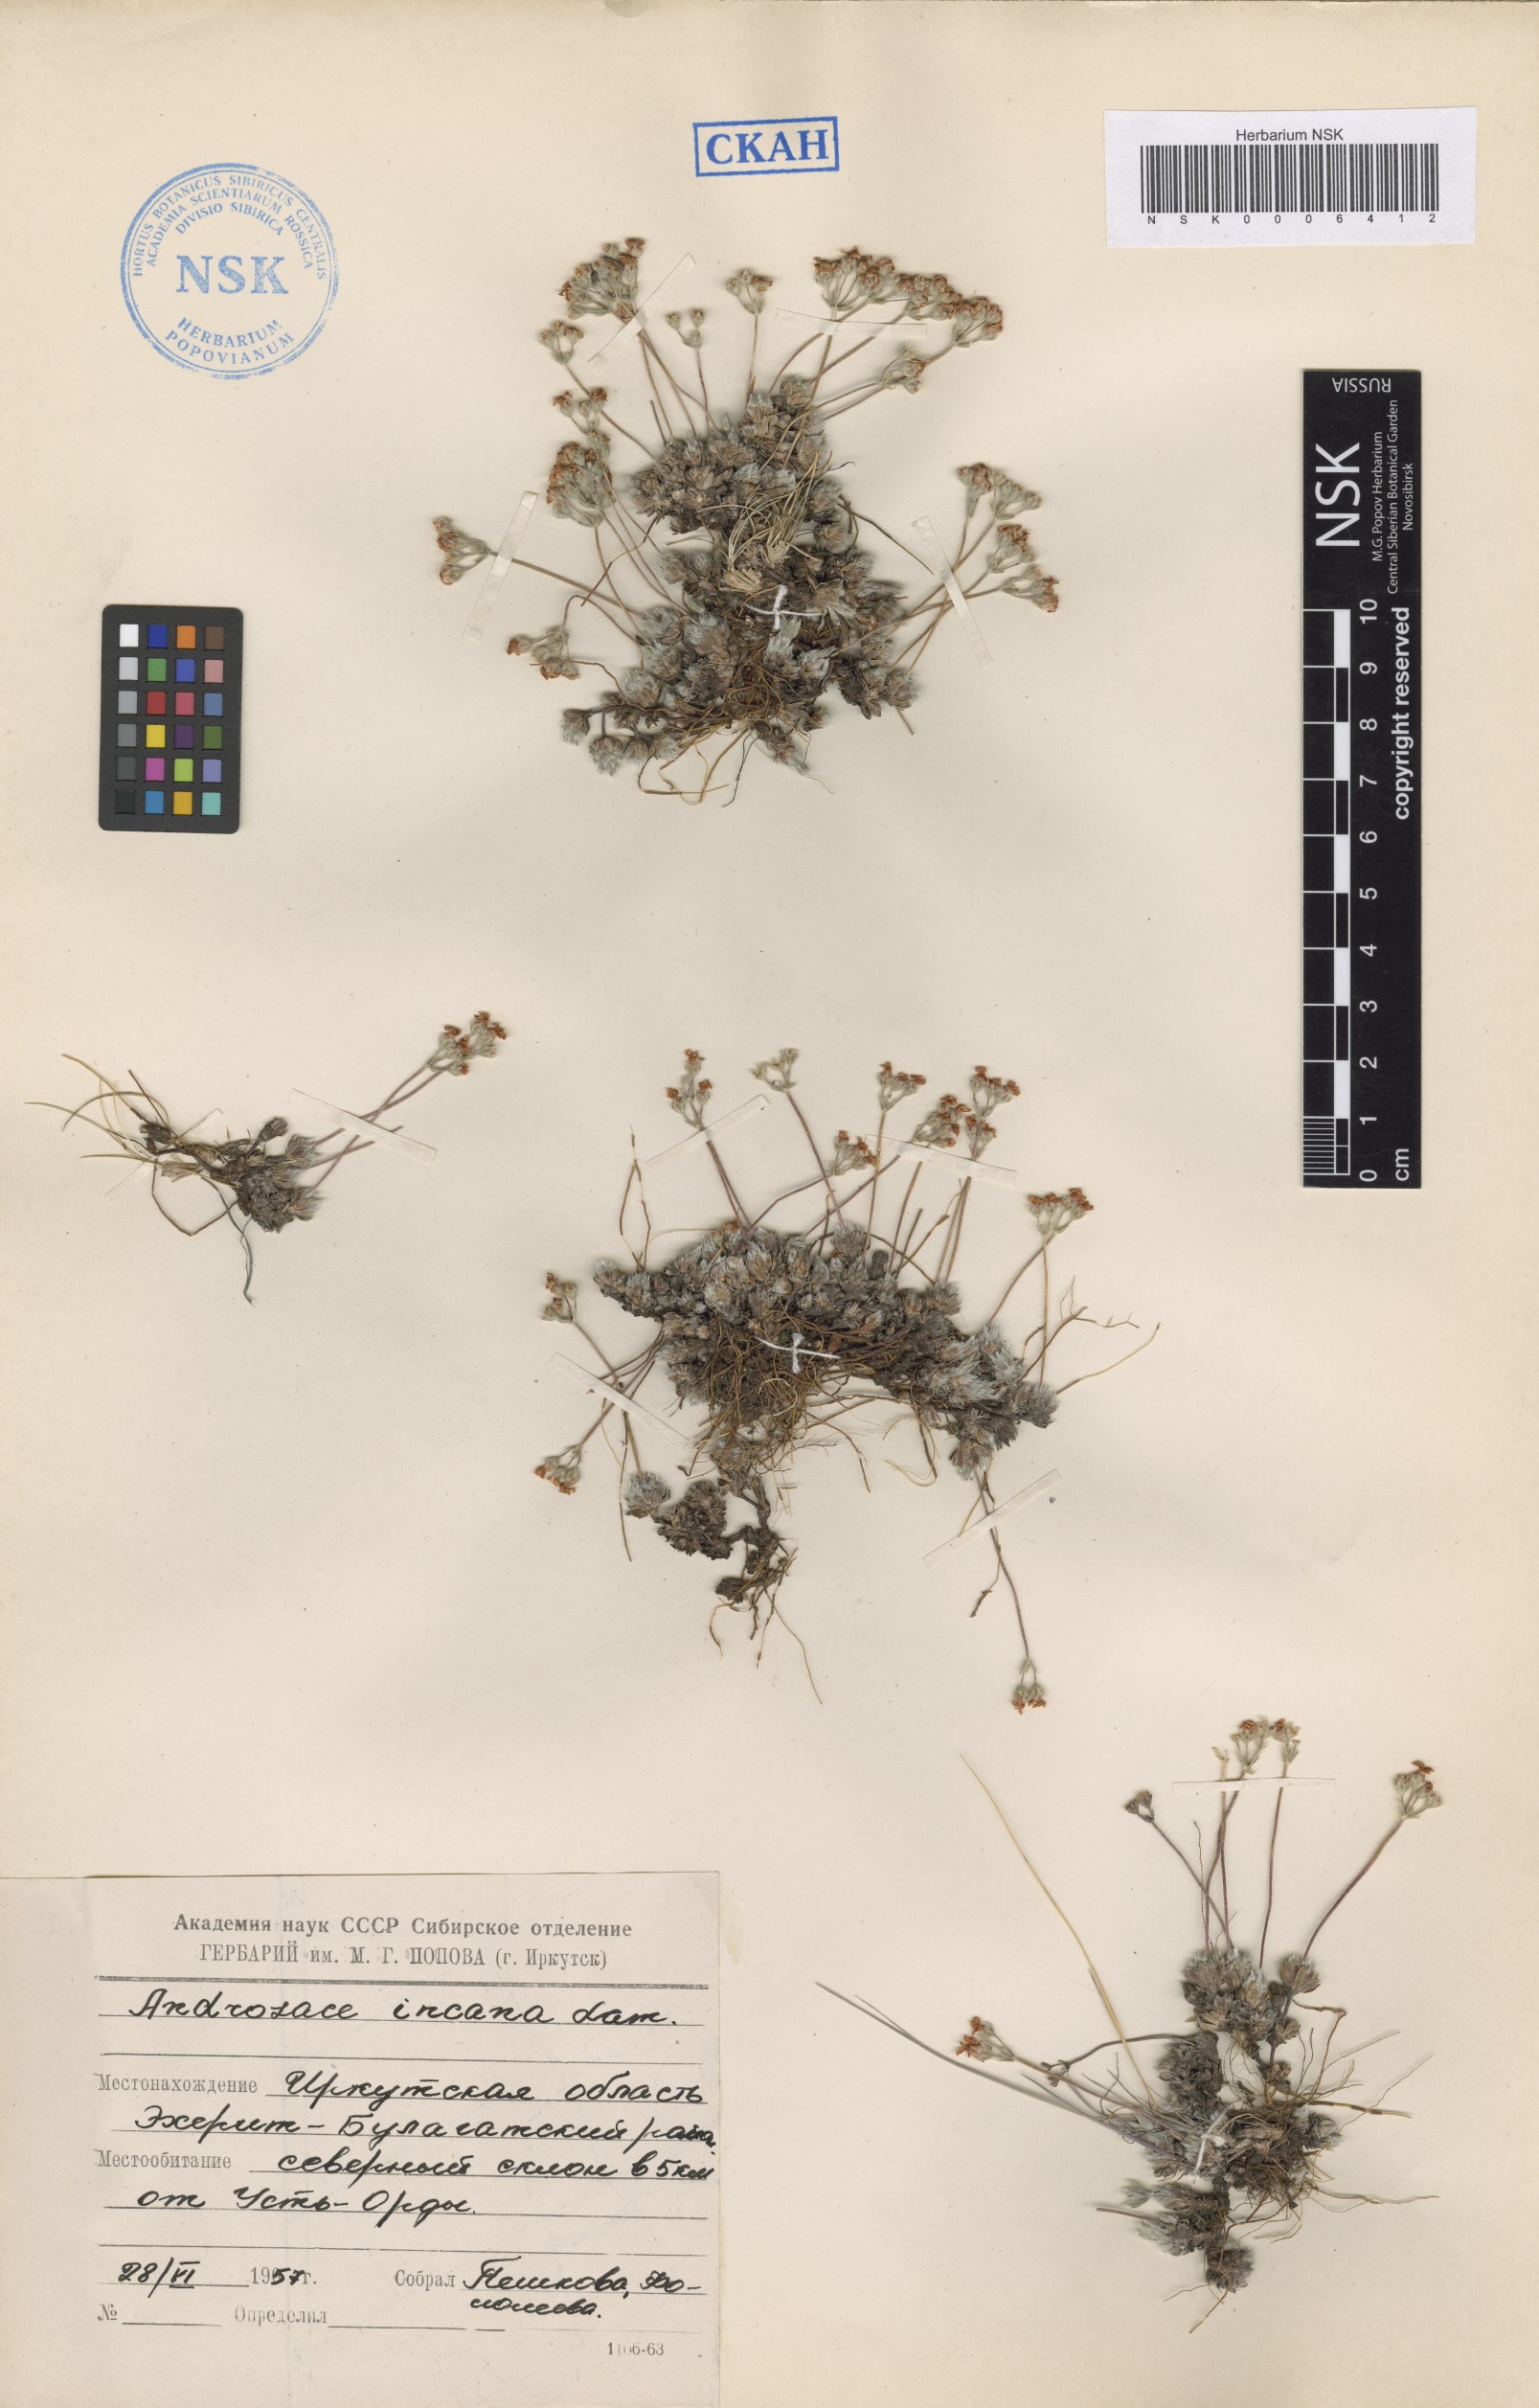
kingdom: Plantae
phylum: Tracheophyta
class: Magnoliopsida
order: Ericales
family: Primulaceae
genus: Androsace
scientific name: Androsace incana
